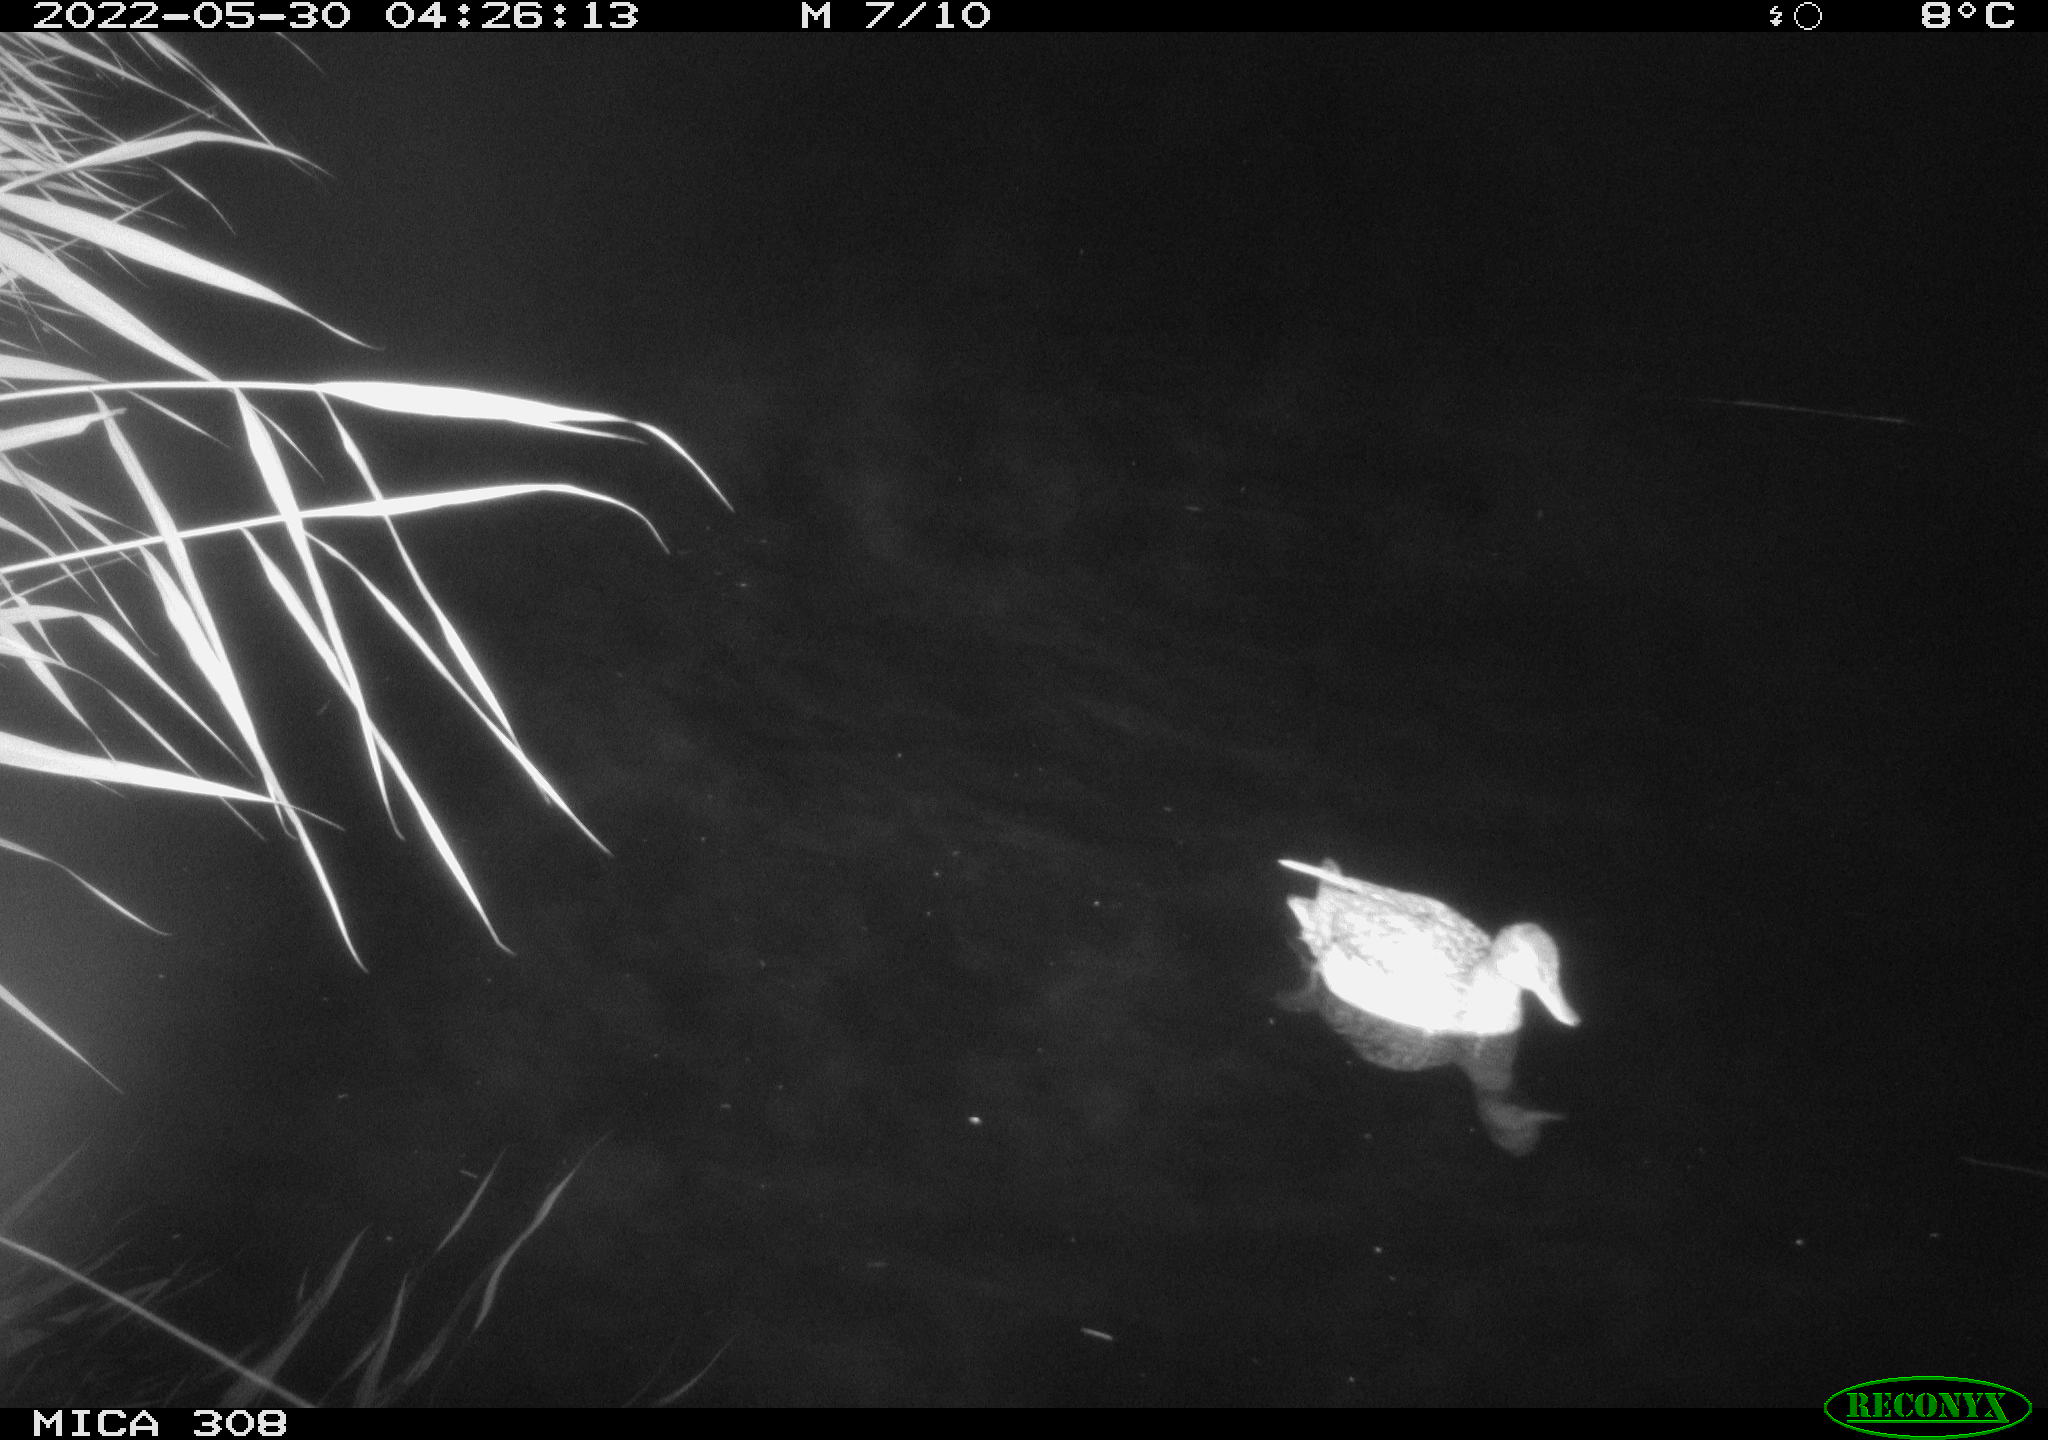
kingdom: Animalia
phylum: Chordata
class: Aves
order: Anseriformes
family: Anatidae
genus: Anas
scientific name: Anas platyrhynchos
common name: Mallard
